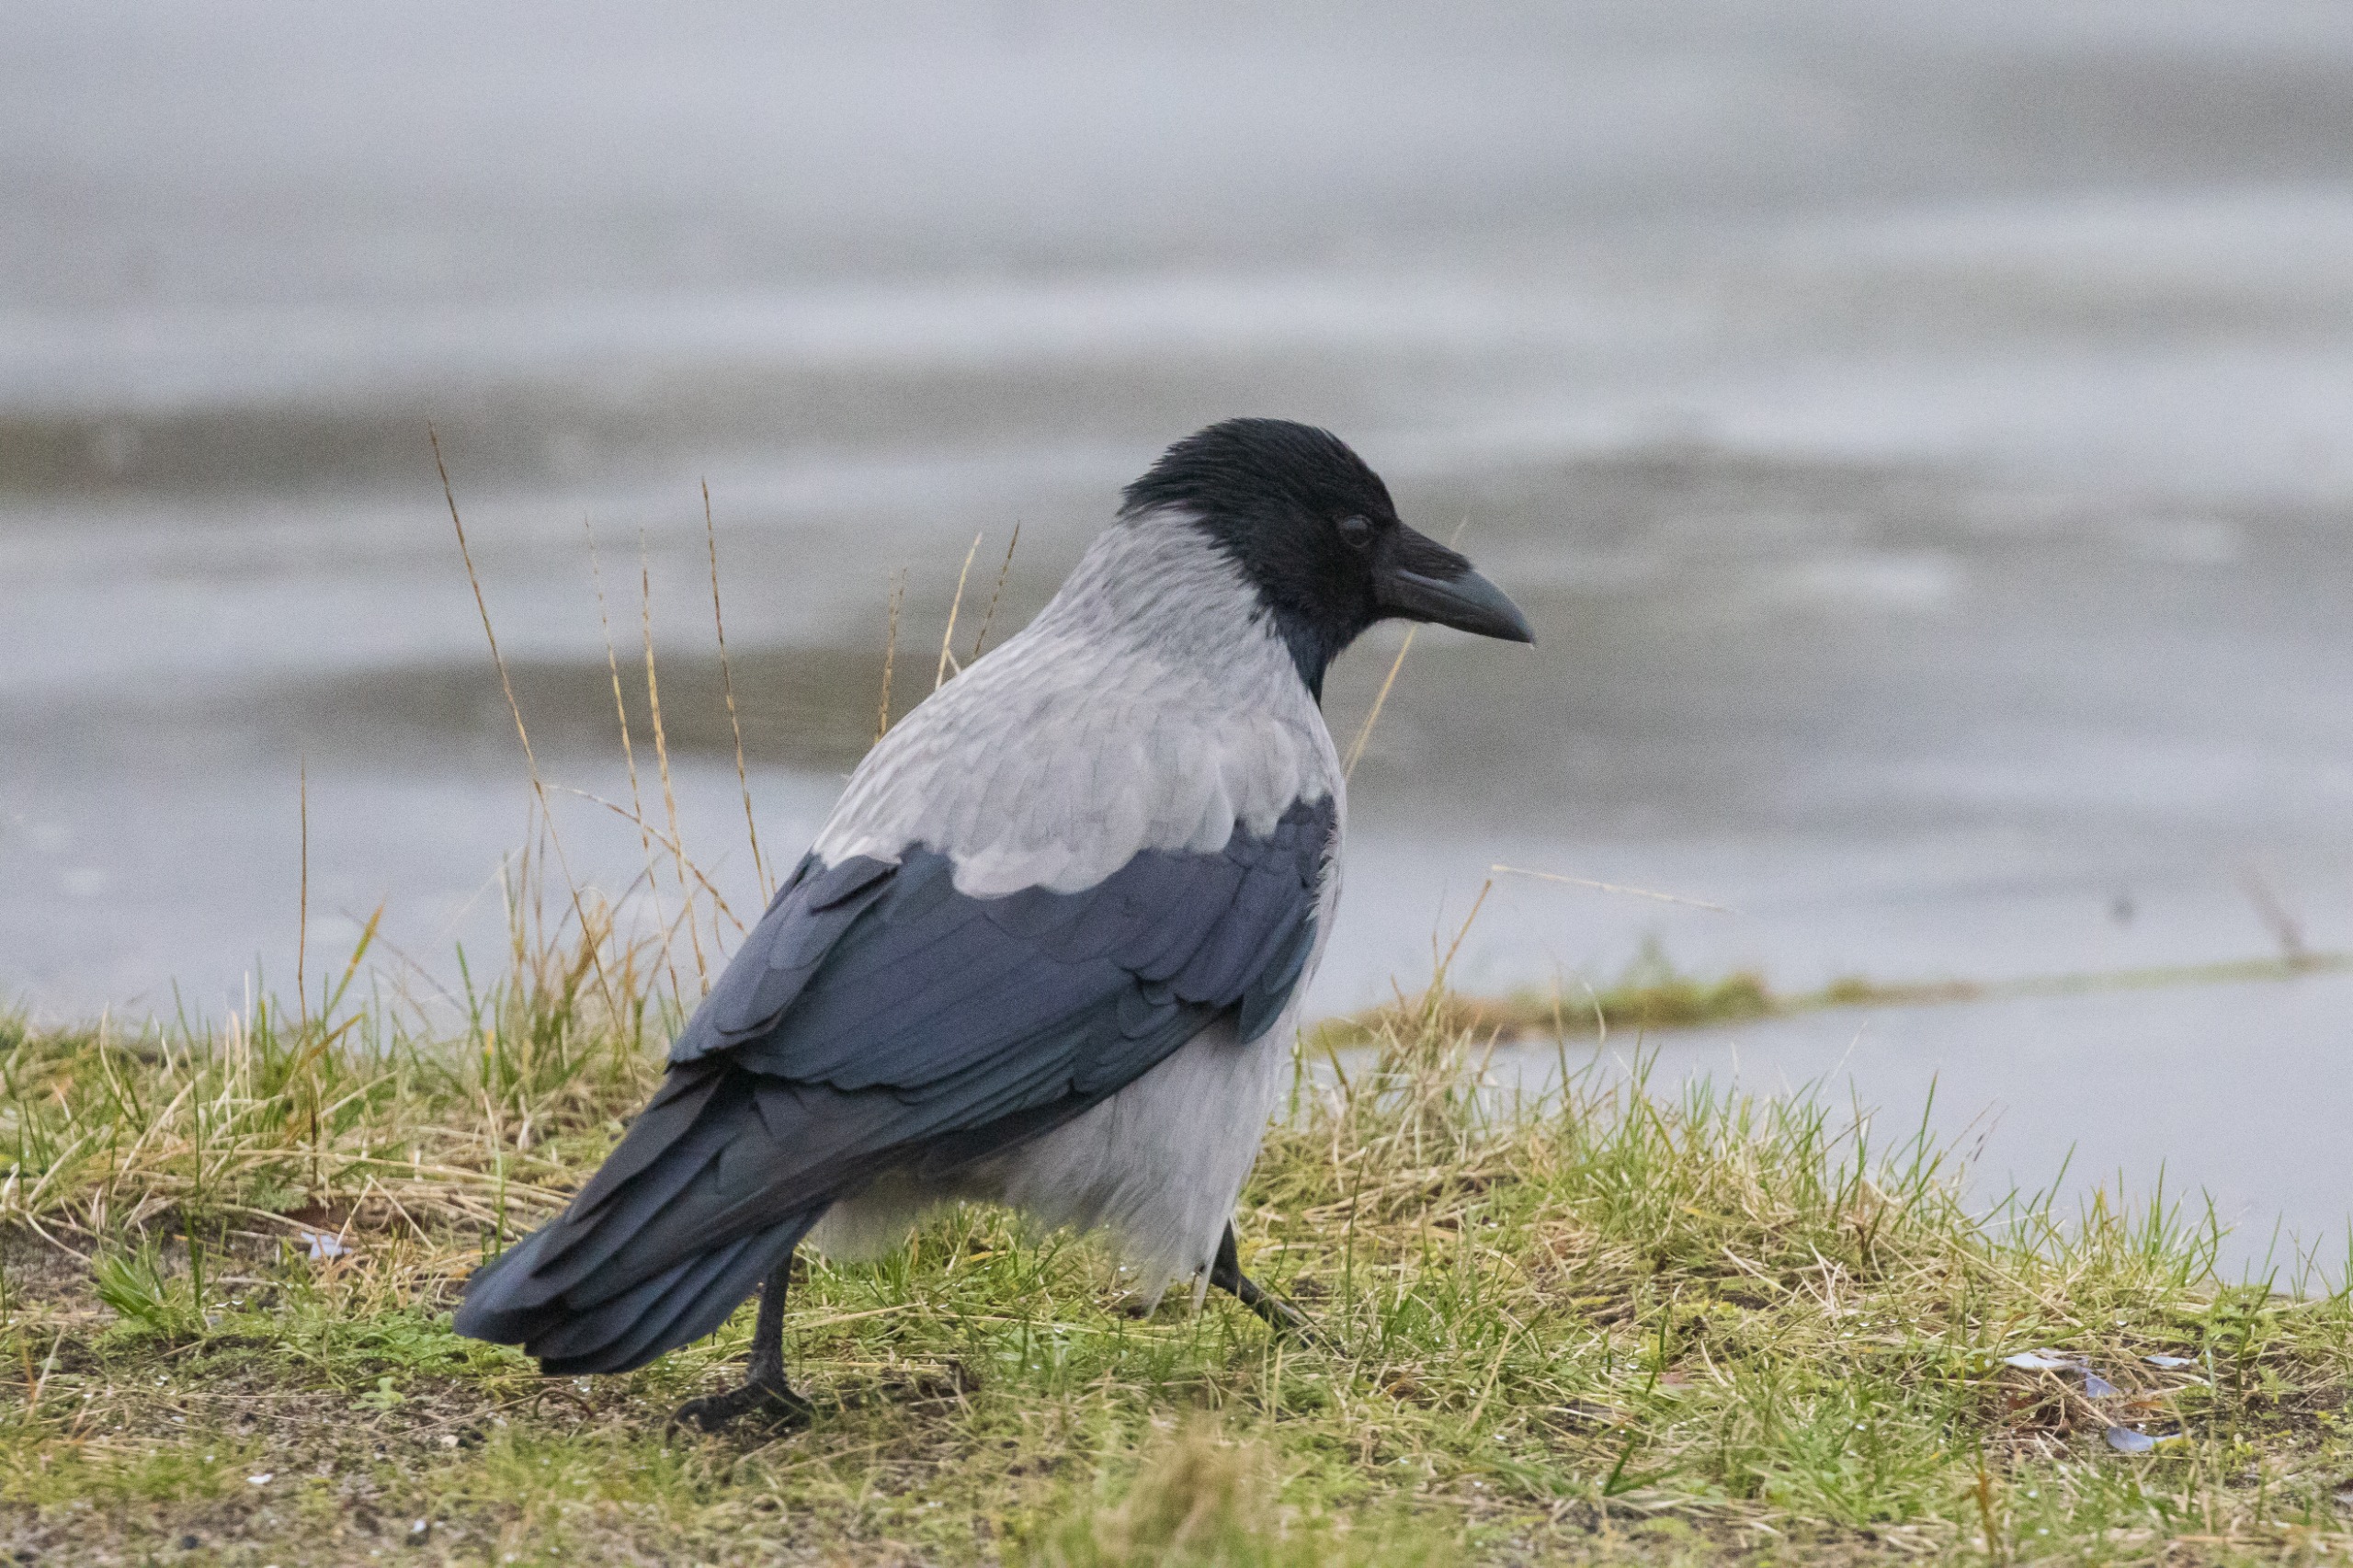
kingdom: Animalia
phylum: Chordata
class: Aves
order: Passeriformes
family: Corvidae
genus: Corvus
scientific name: Corvus cornix
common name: Gråkrage
